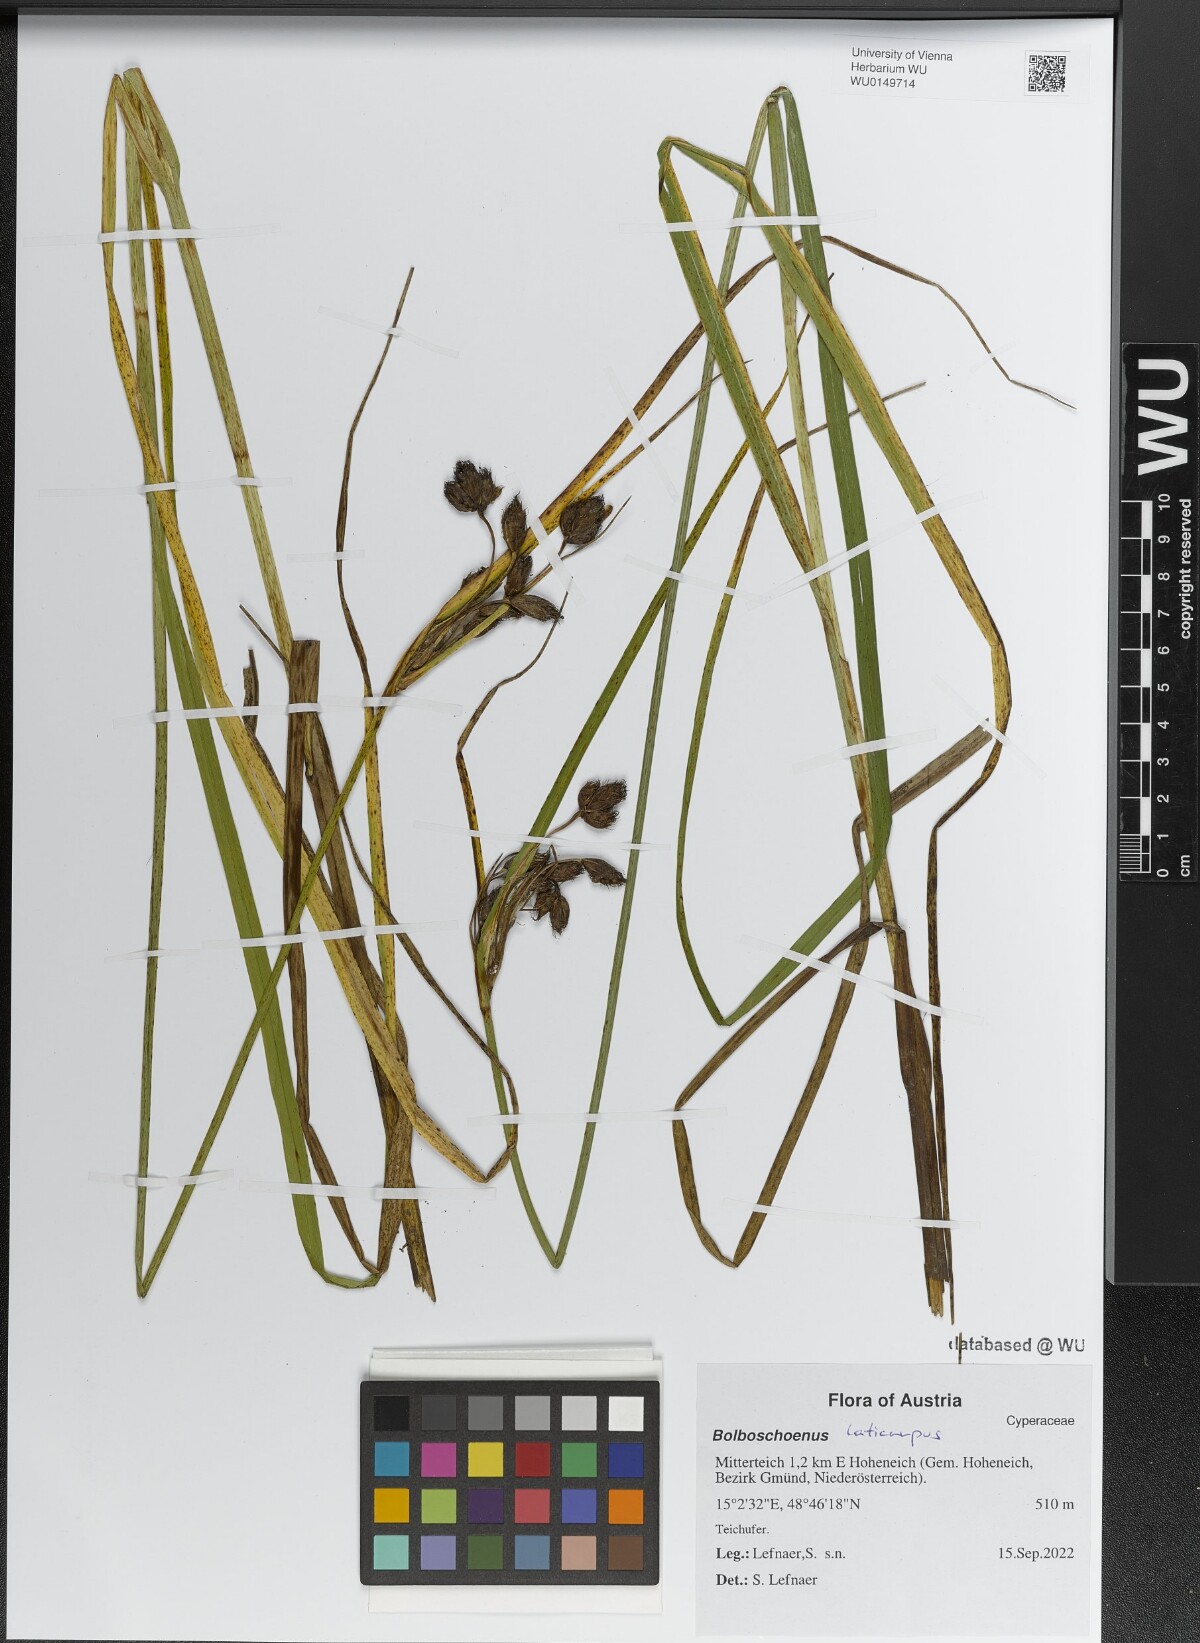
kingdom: Plantae
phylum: Tracheophyta
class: Liliopsida
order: Poales
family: Cyperaceae
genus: Bolboschoenus
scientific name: Bolboschoenus
